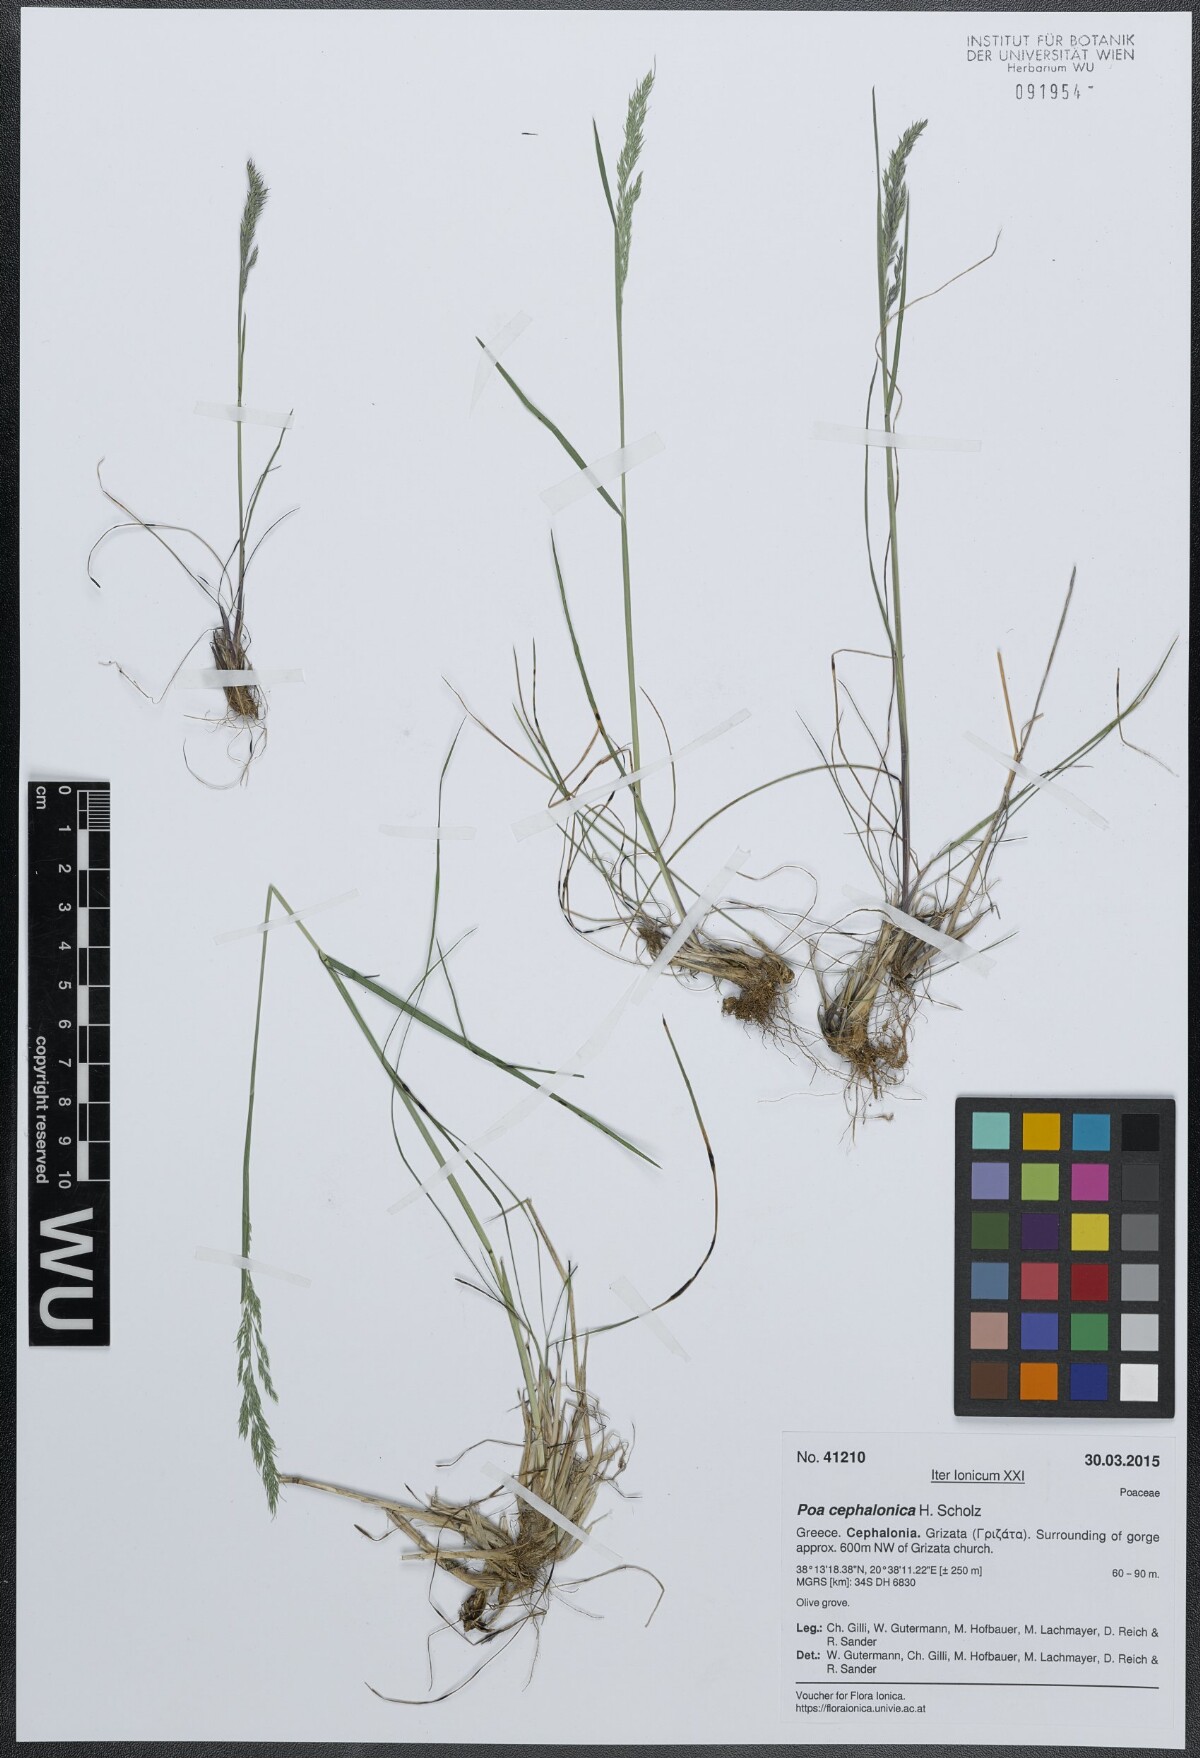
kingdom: Plantae
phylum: Tracheophyta
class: Liliopsida
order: Poales
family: Poaceae
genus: Poa
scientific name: Poa bulbosa
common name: Bulbous bluegrass
